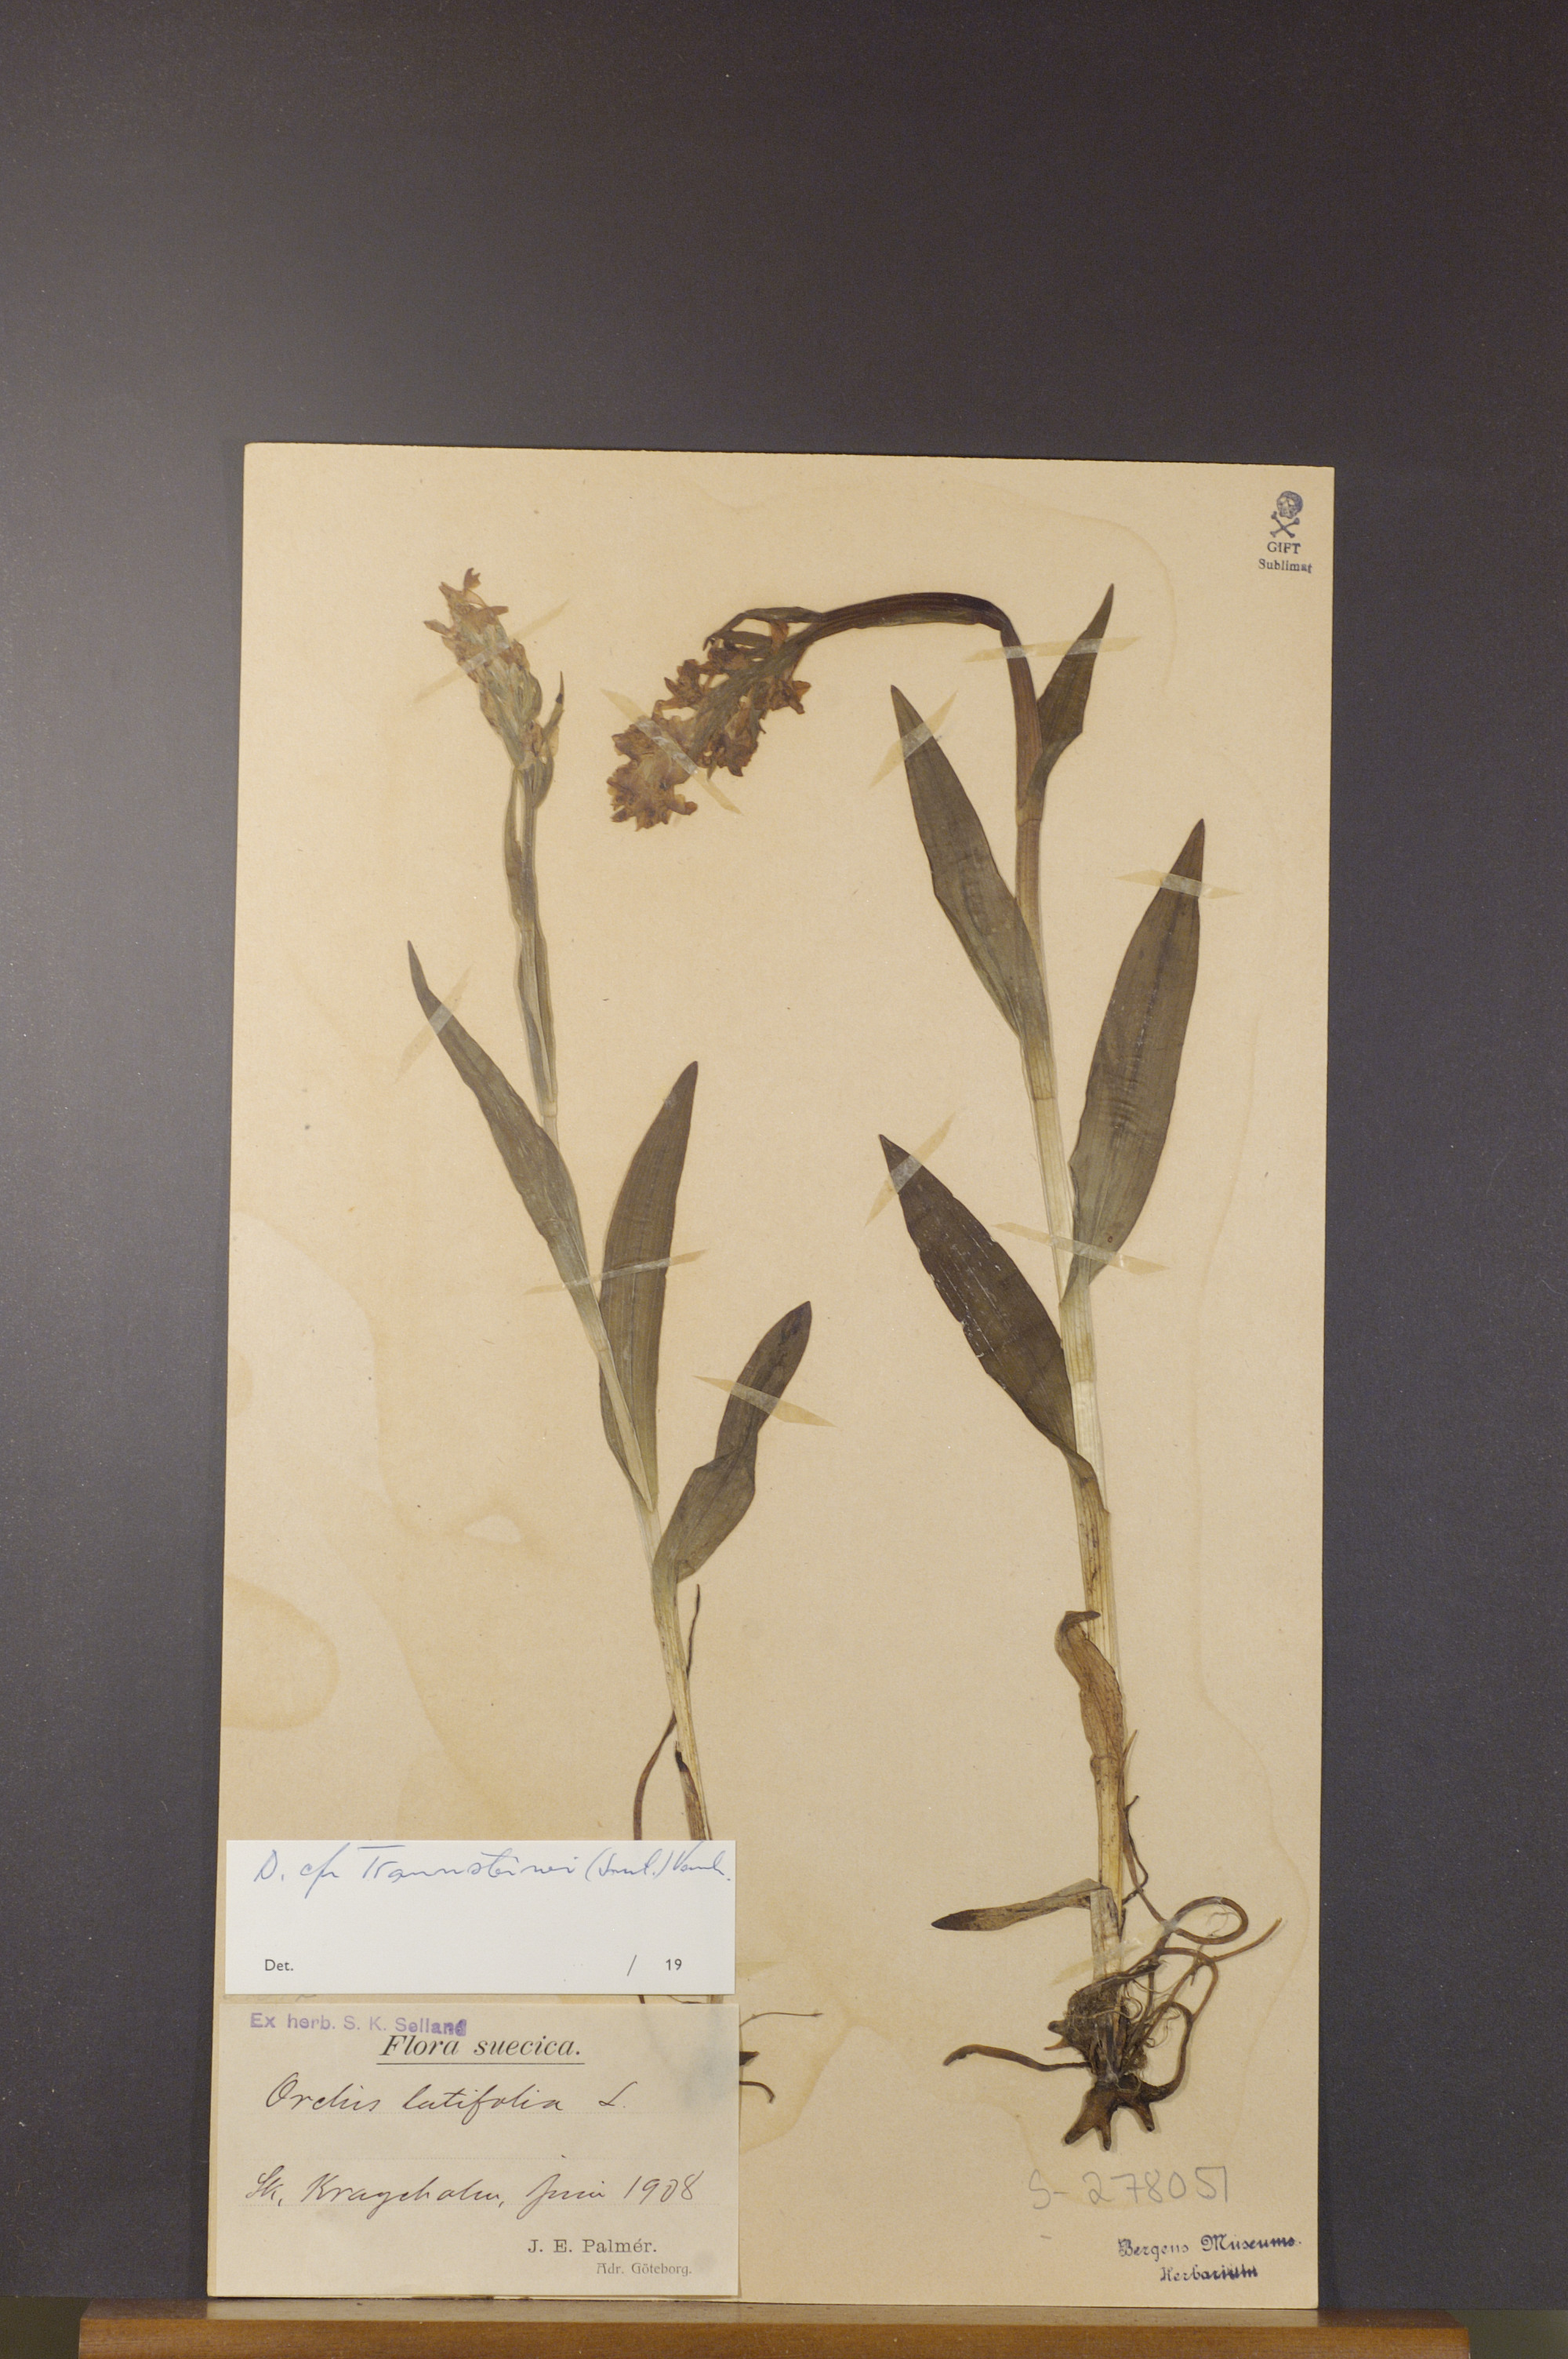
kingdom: Plantae
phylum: Tracheophyta
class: Liliopsida
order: Asparagales
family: Orchidaceae
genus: Dactylorhiza
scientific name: Dactylorhiza majalis
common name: Marsh orchid
